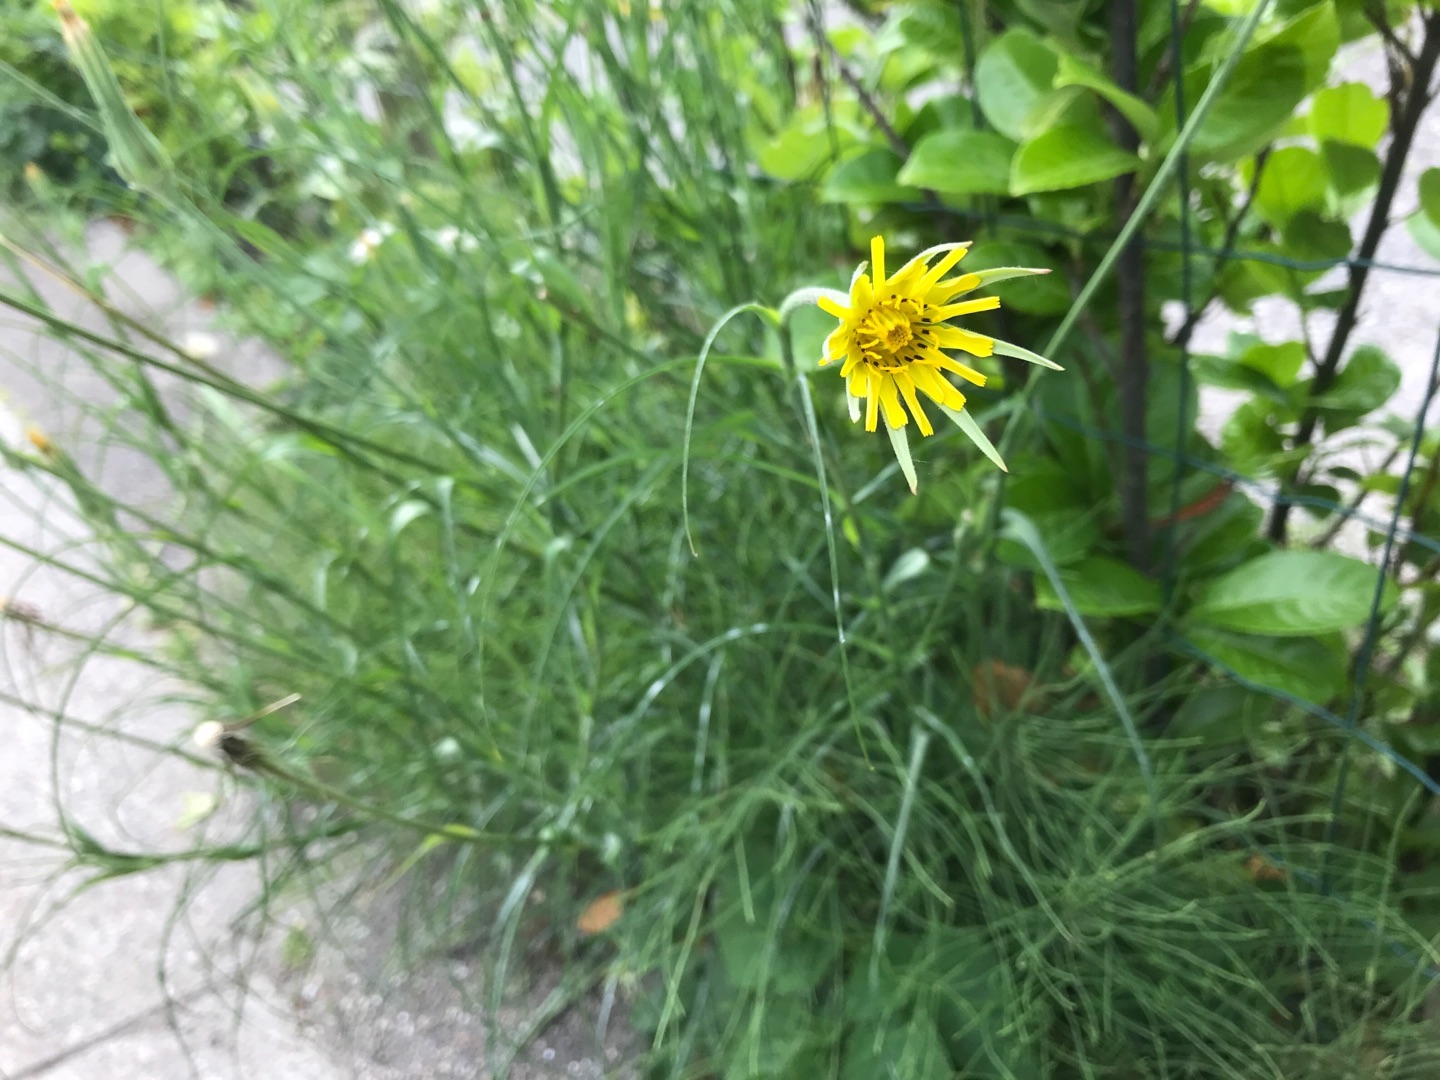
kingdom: Plantae
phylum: Tracheophyta
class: Magnoliopsida
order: Asterales
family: Asteraceae
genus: Tragopogon
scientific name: Tragopogon pratensis
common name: Gedeskæg
